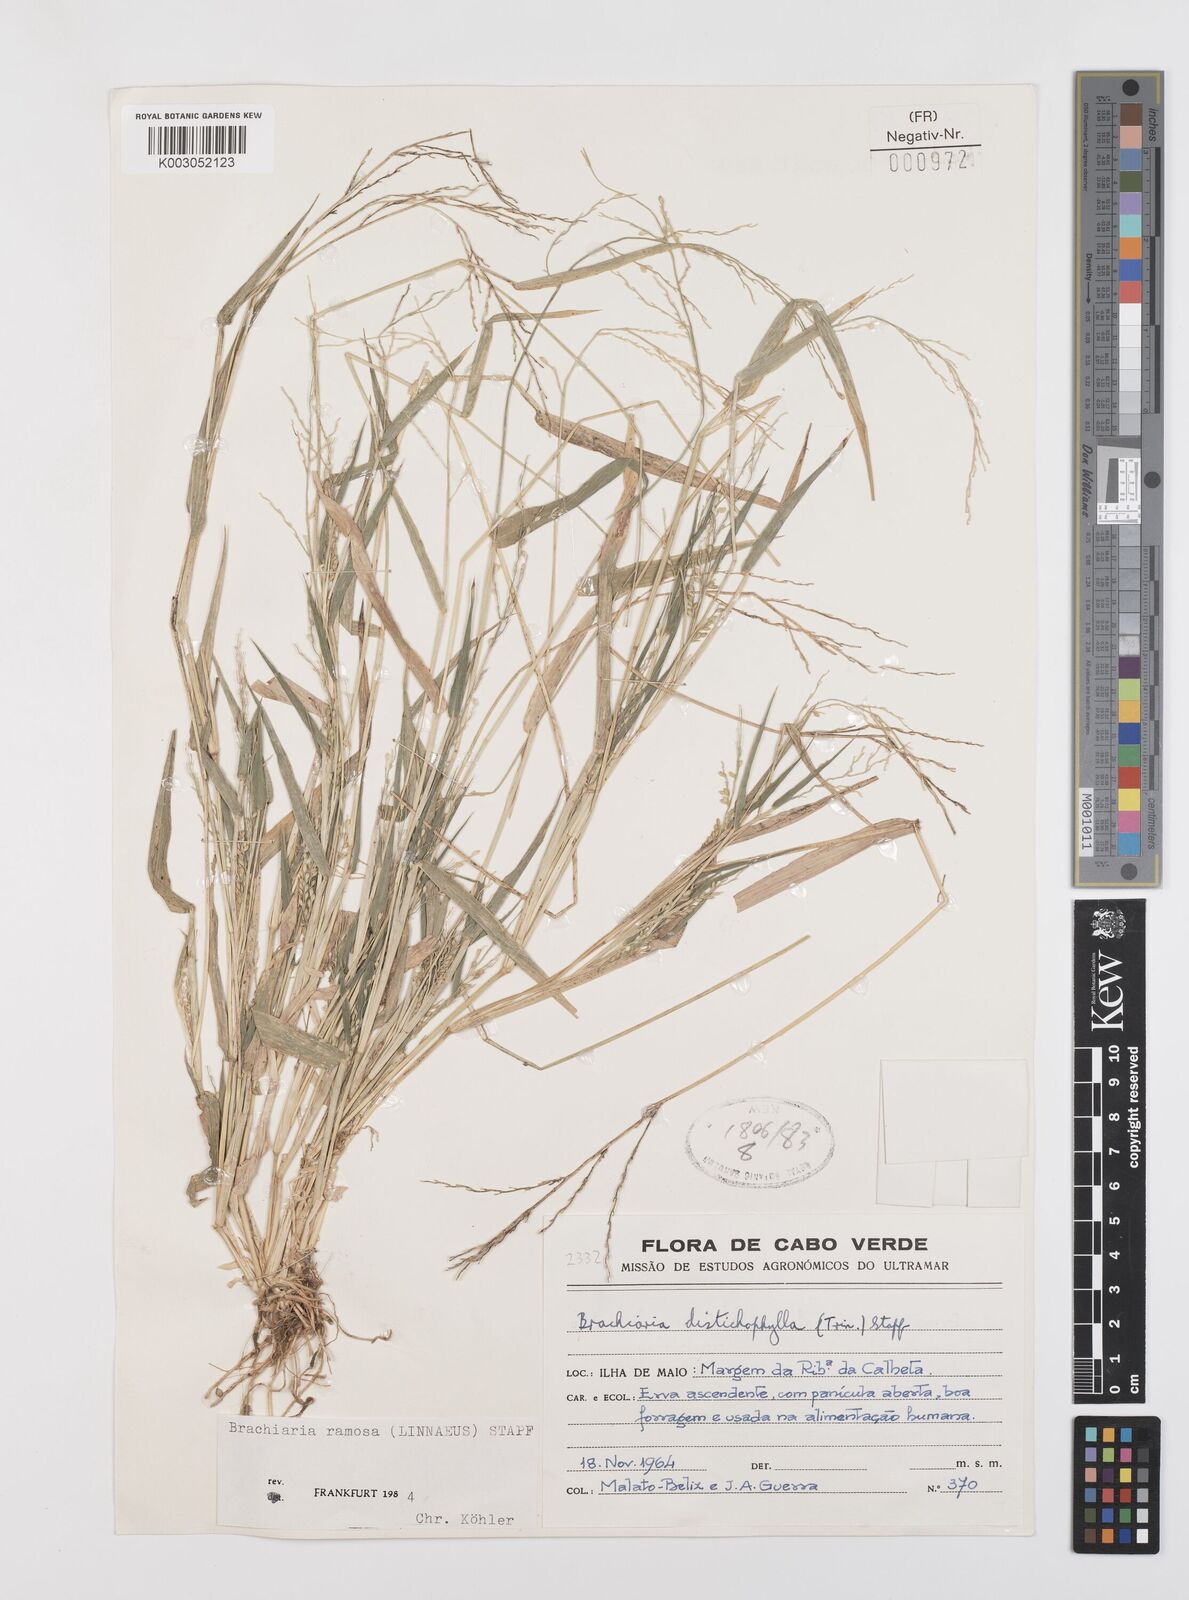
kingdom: Plantae
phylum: Tracheophyta
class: Liliopsida
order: Poales
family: Poaceae
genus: Urochloa
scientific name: Urochloa villosa
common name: Hairy signalgrass
